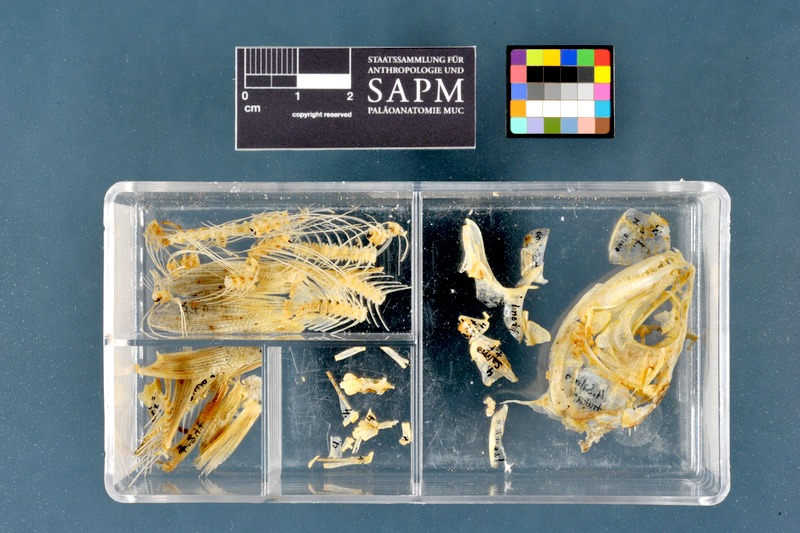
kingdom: Animalia
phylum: Chordata
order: Salmoniformes
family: Salmonidae
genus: Salmo
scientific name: Salmo trutta
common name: Brown trout
